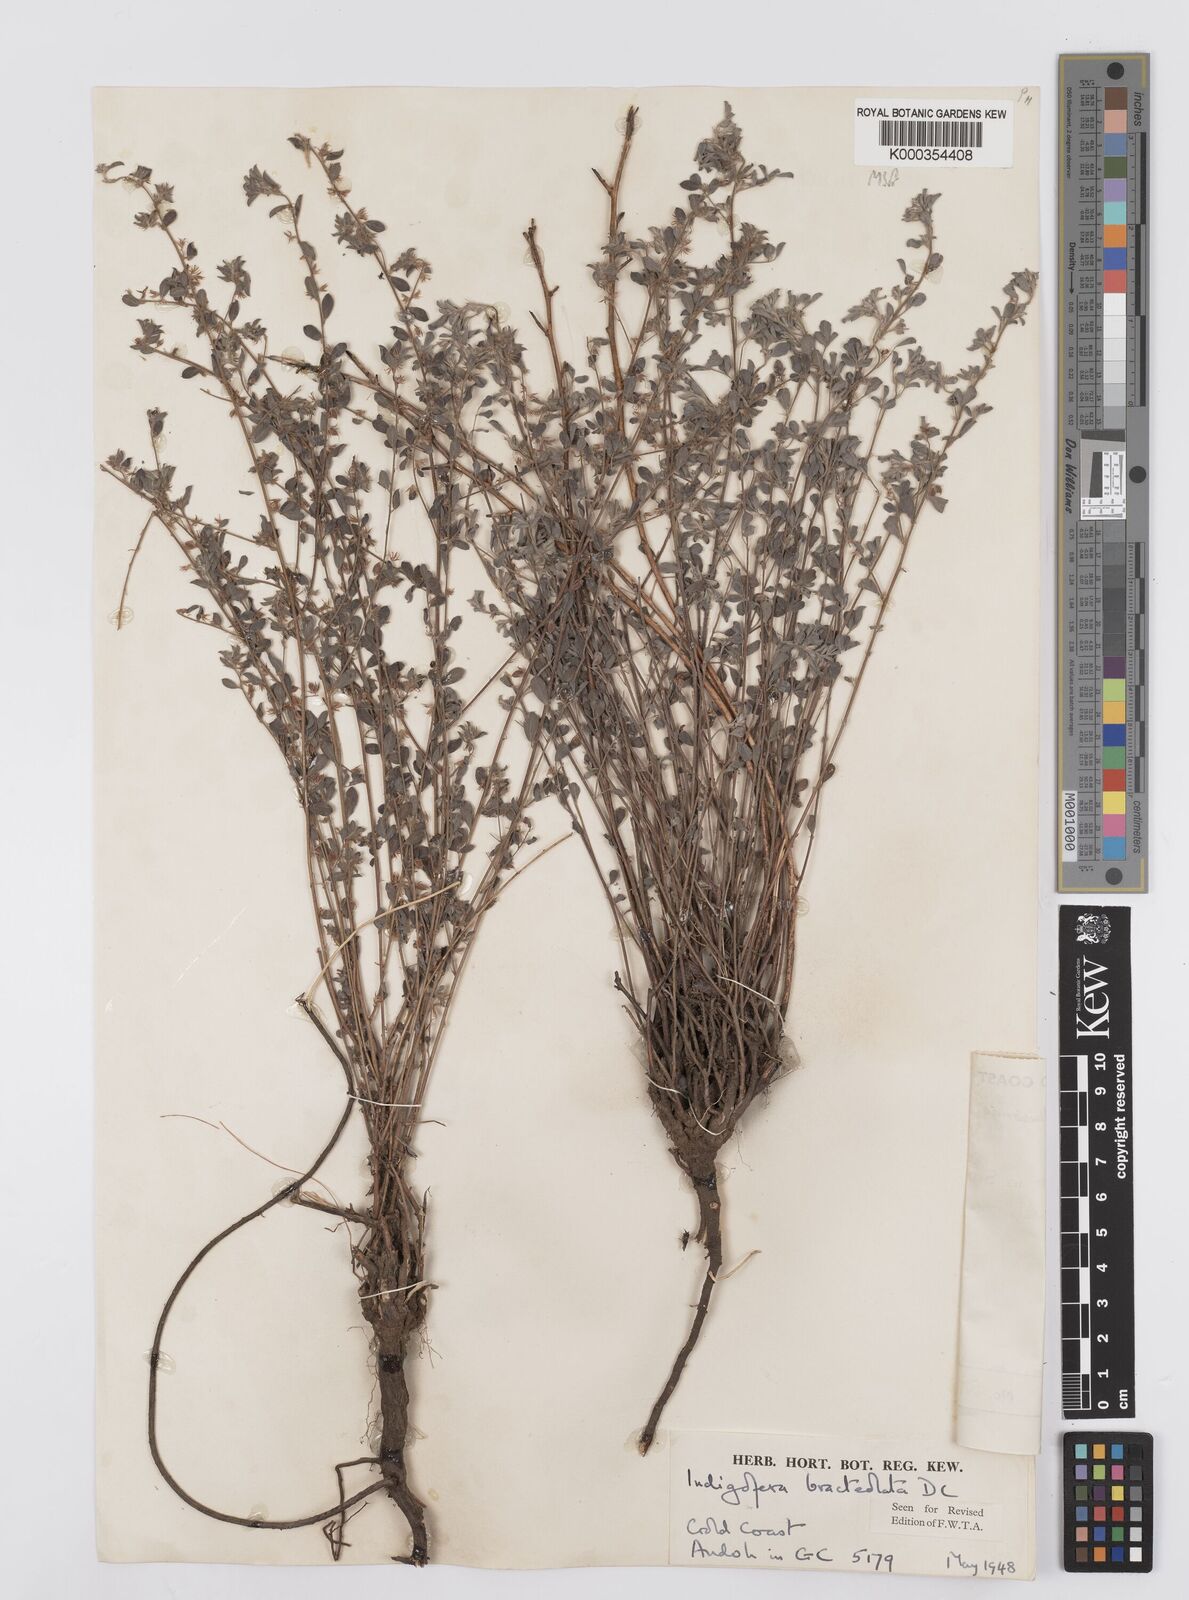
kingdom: Plantae
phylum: Tracheophyta
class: Magnoliopsida
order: Fabales
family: Fabaceae
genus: Indigofera
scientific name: Indigofera bracteolata
